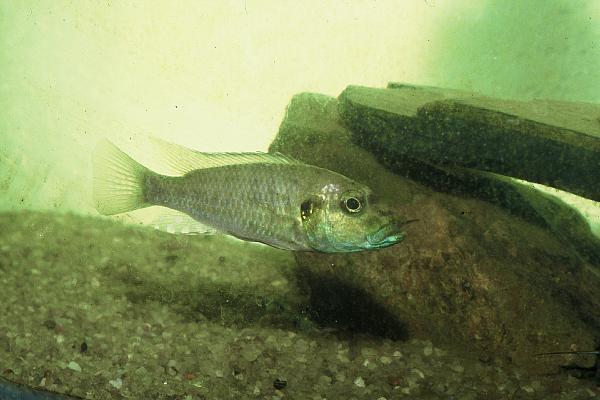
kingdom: Animalia
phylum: Chordata
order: Perciformes
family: Cichlidae
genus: Ctenochromis
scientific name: Ctenochromis
